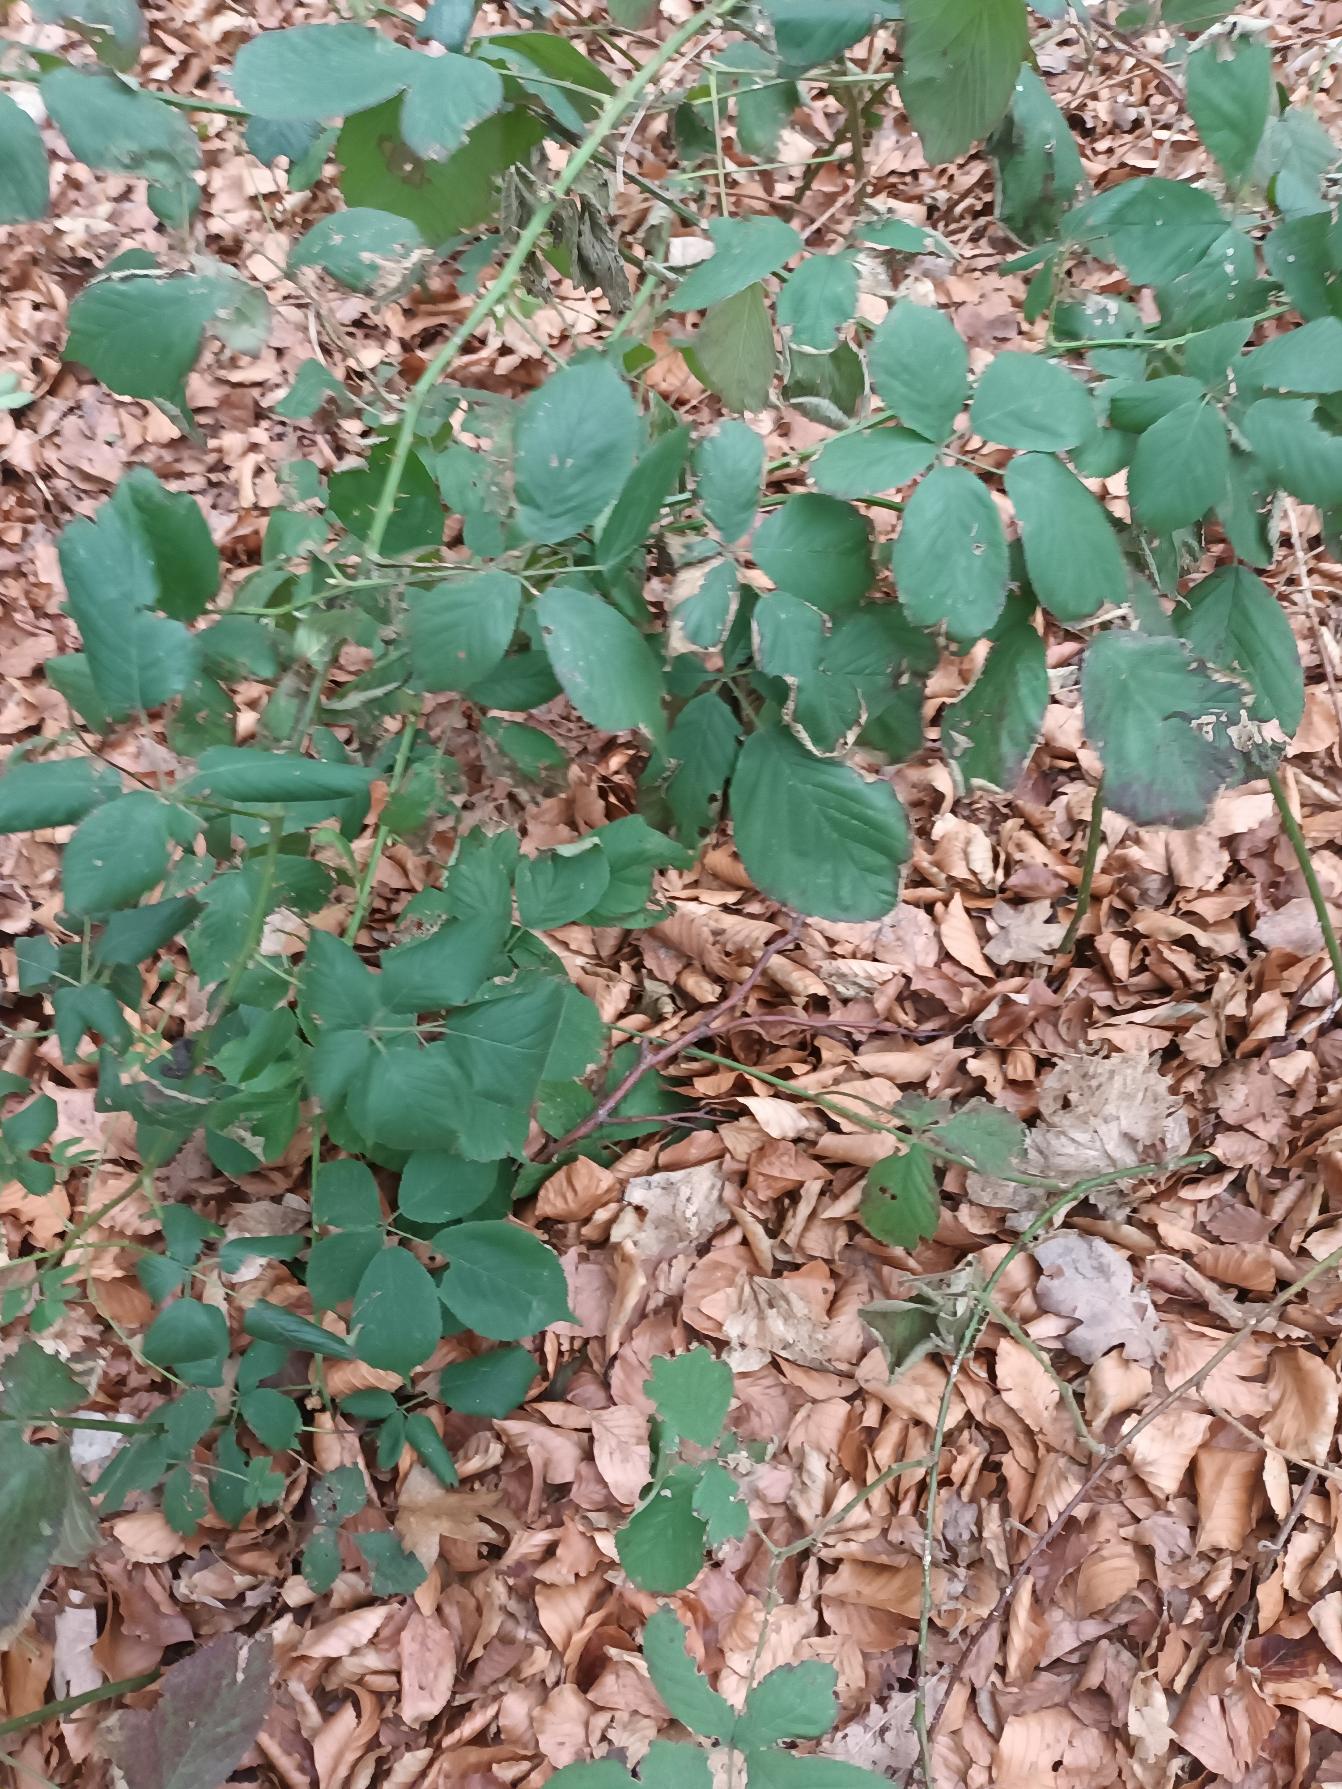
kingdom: Plantae
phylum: Tracheophyta
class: Magnoliopsida
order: Rosales
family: Rosaceae
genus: Rubus
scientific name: Rubus leptothyrsos
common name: Dansk brombær
